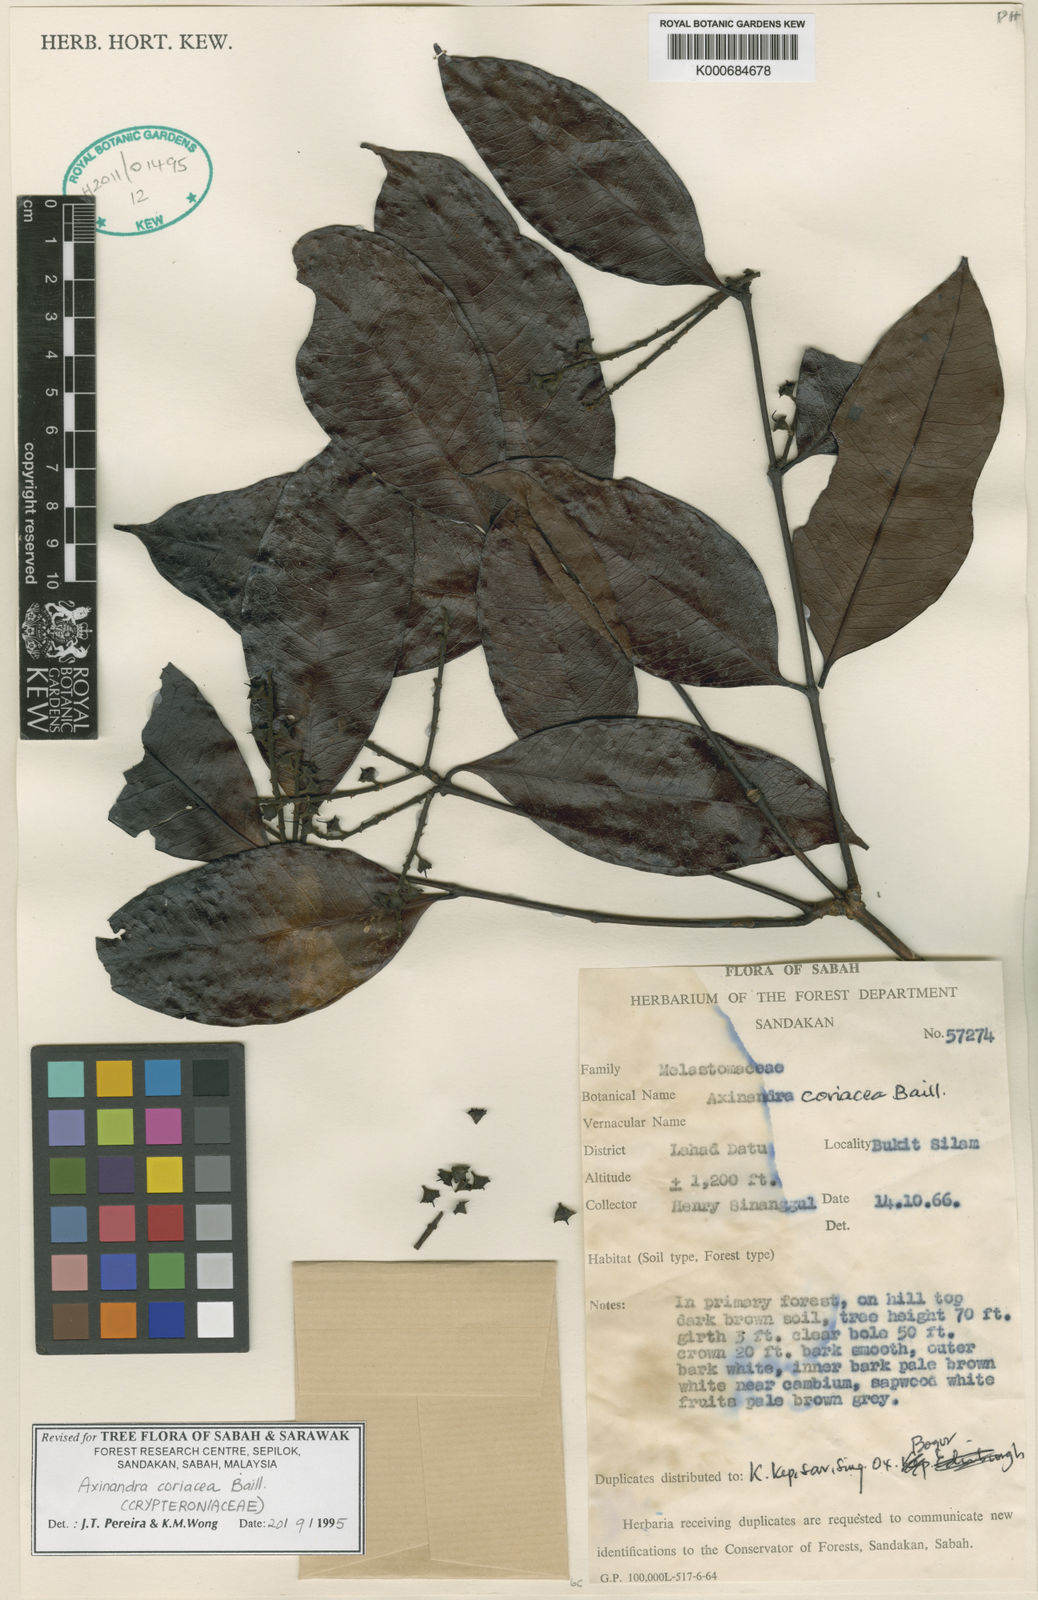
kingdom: Plantae
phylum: Tracheophyta
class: Magnoliopsida
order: Myrtales
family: Crypteroniaceae
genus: Axinandra
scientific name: Axinandra coriacea
